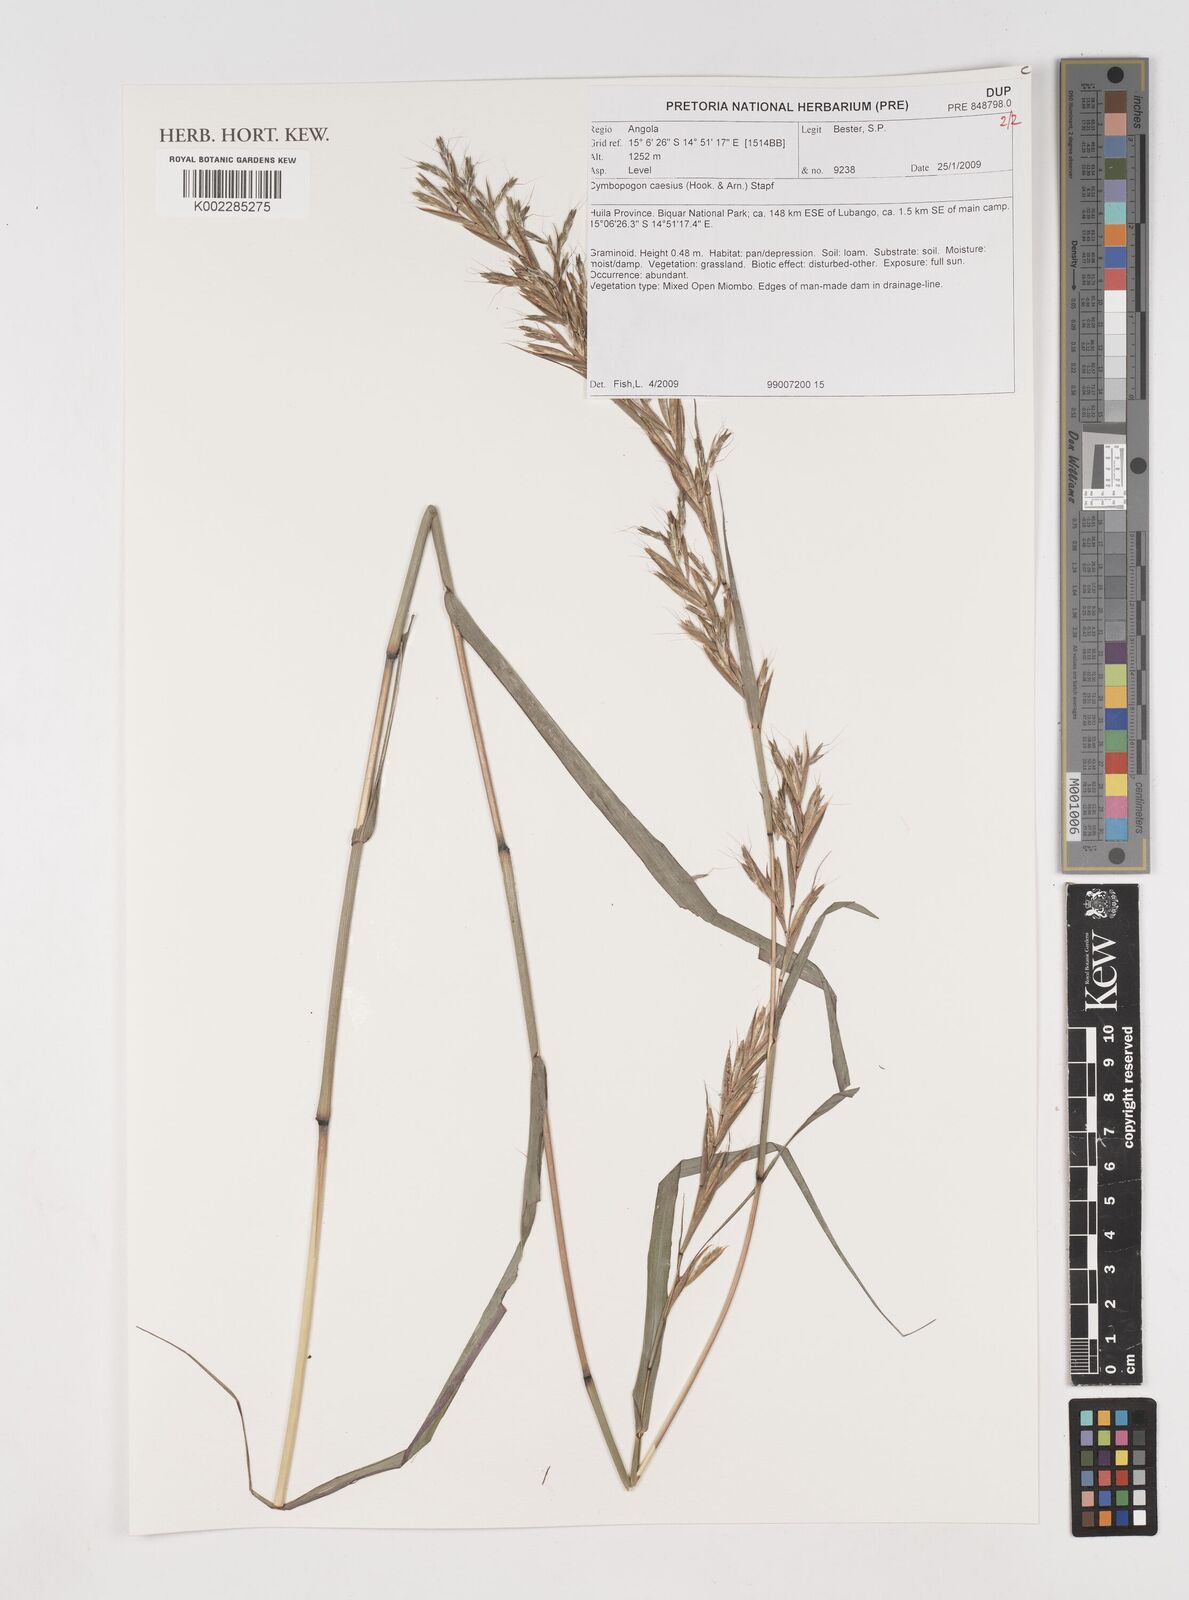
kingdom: Plantae
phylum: Tracheophyta
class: Liliopsida
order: Poales
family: Poaceae
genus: Cymbopogon
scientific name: Cymbopogon caesius
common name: Kachi grass
